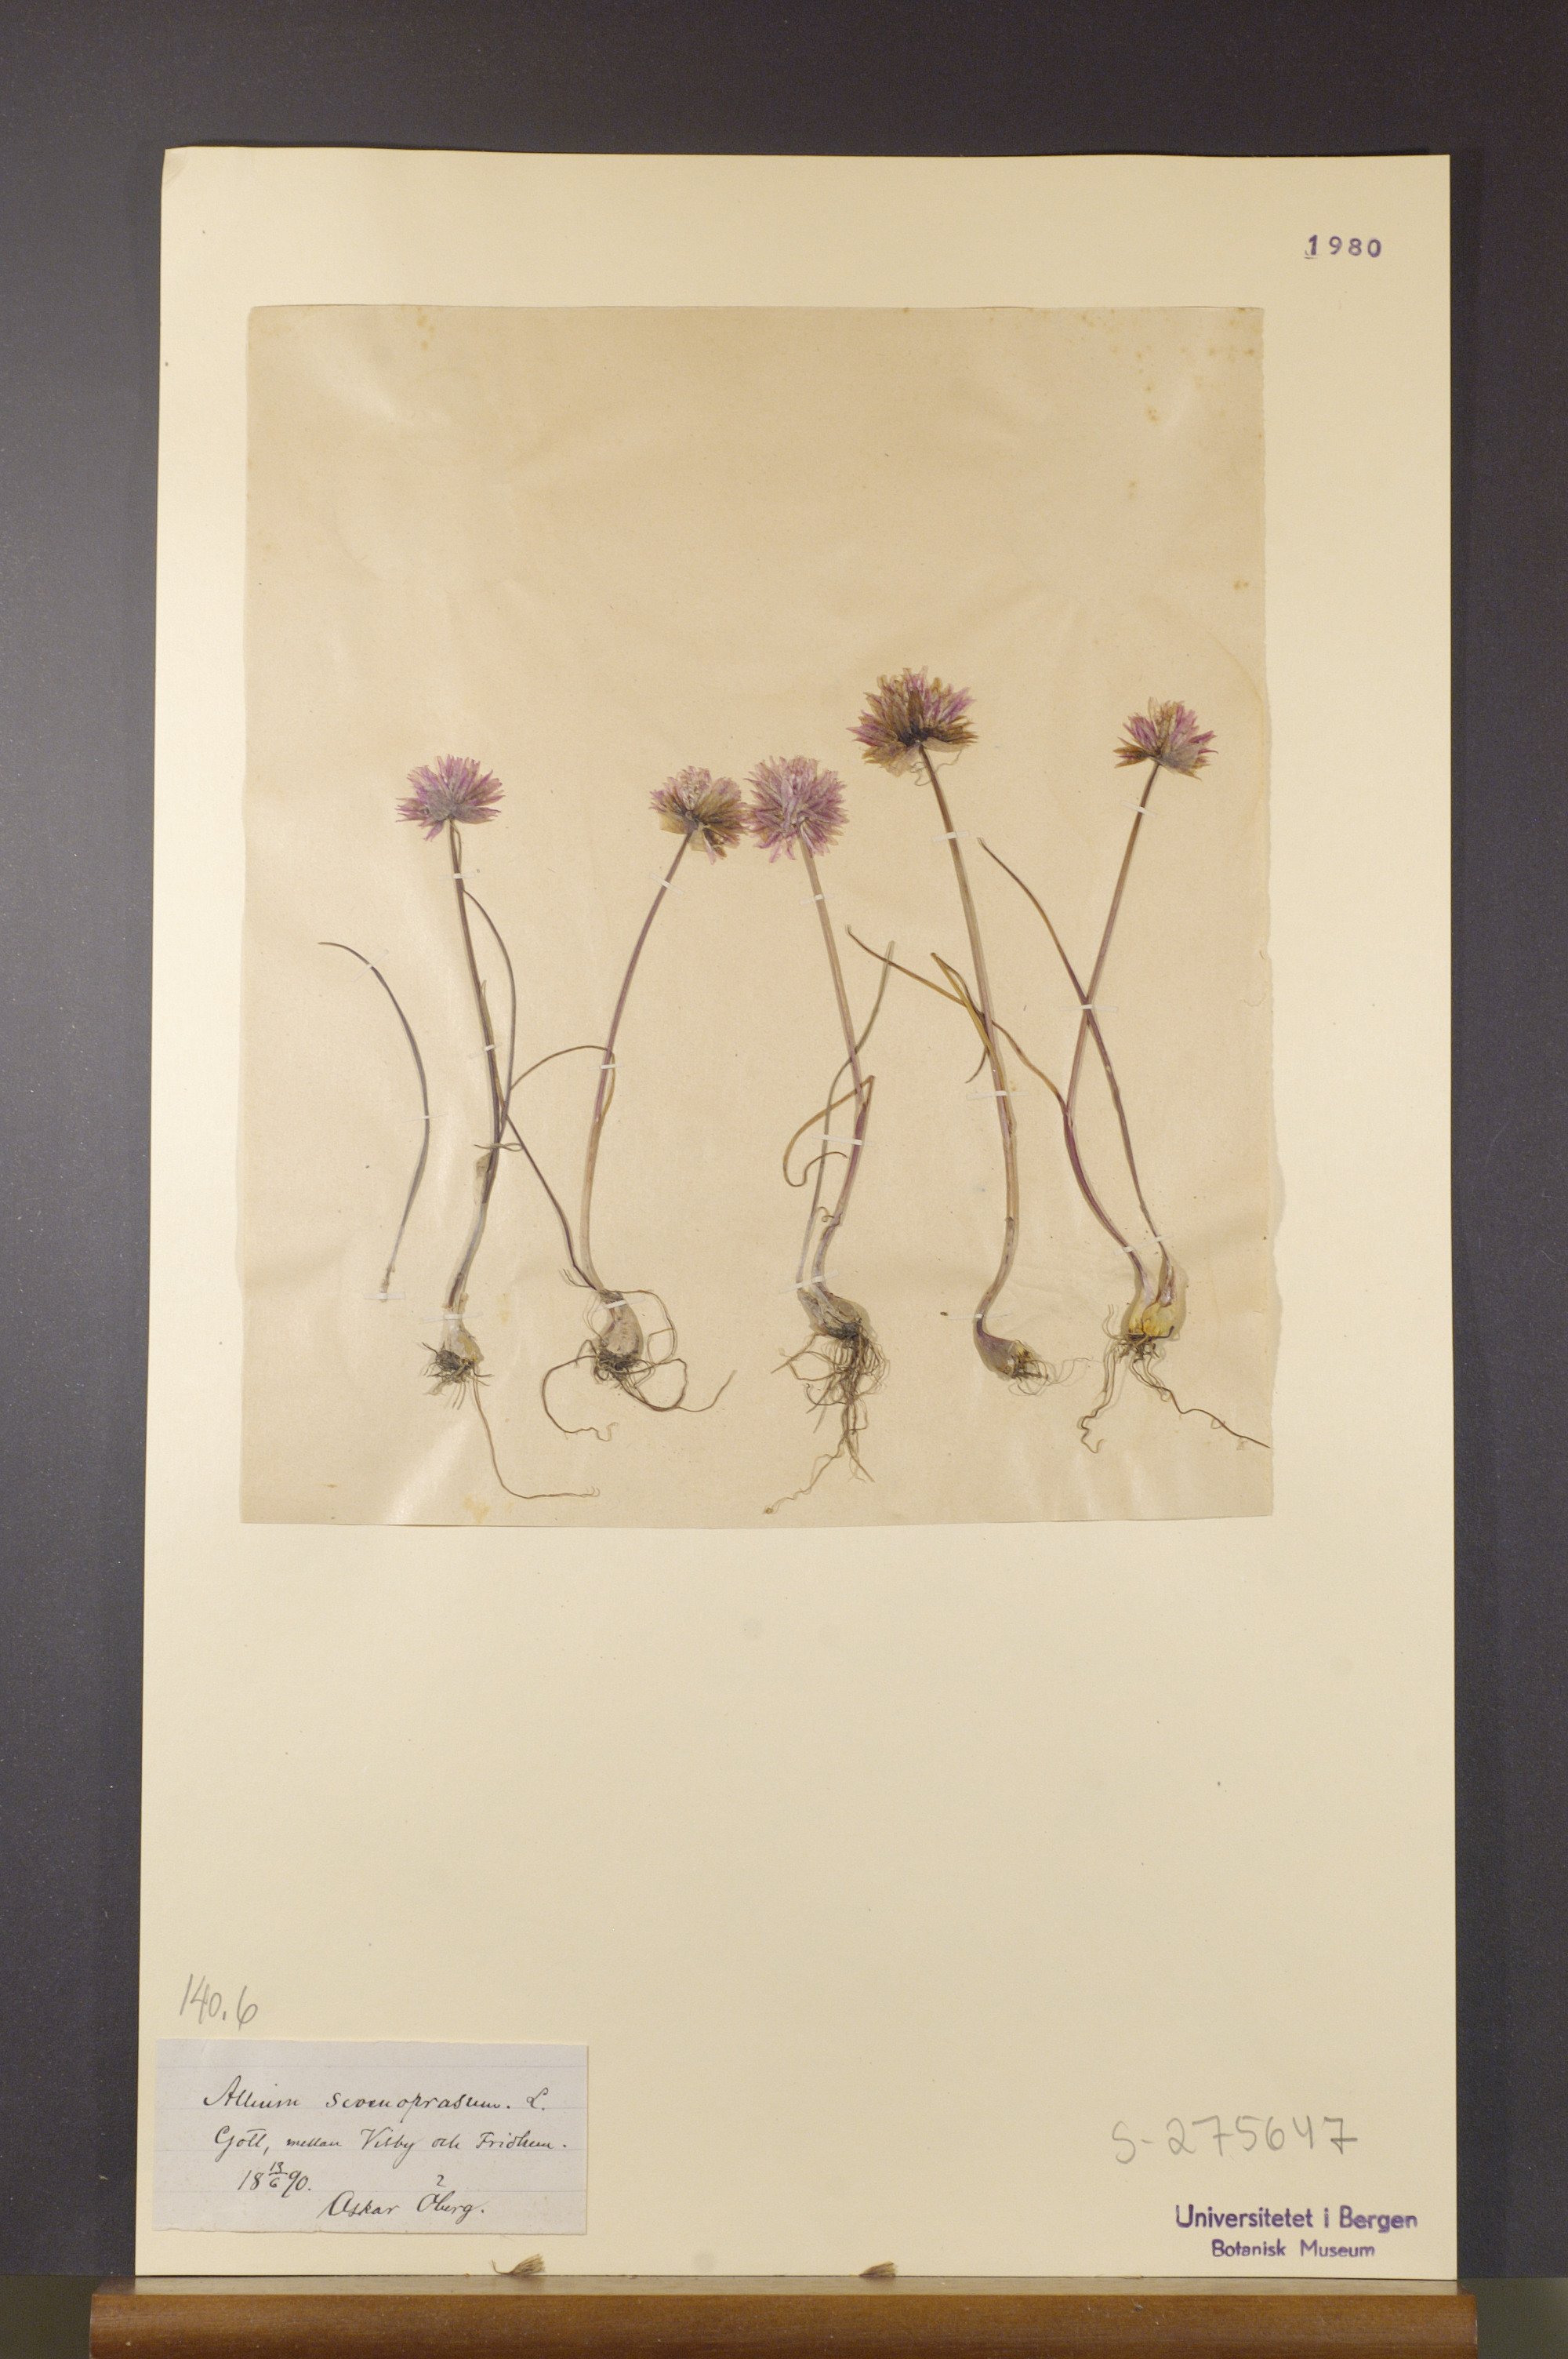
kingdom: Plantae
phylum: Tracheophyta
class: Liliopsida
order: Asparagales
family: Amaryllidaceae
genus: Allium
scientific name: Allium schoenoprasum
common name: Chives
